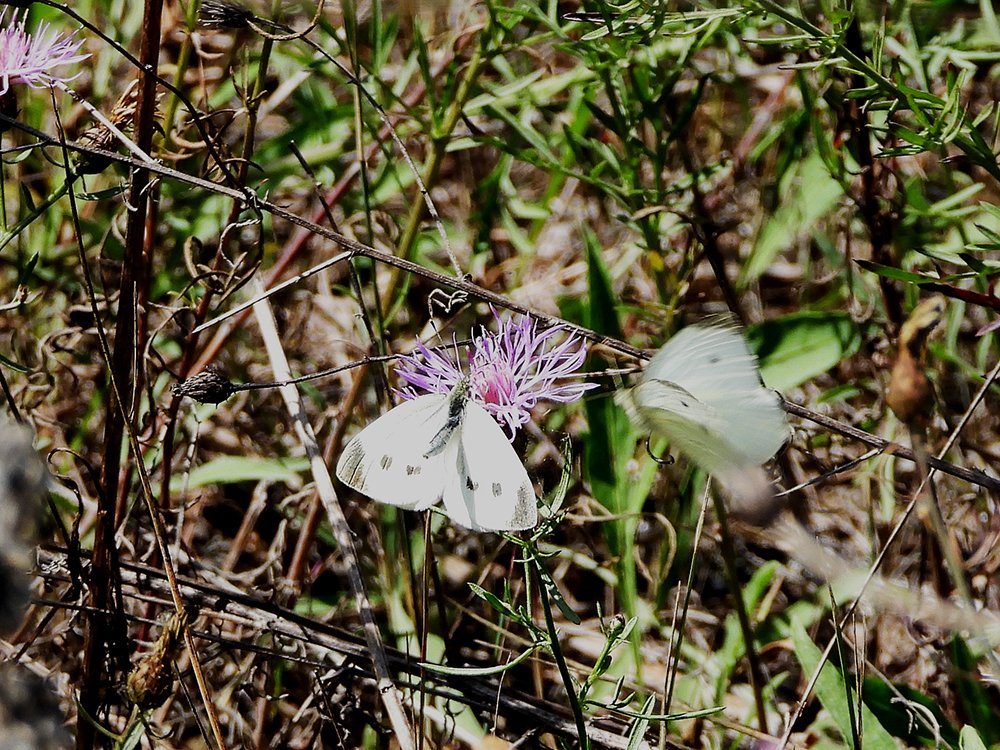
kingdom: Animalia
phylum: Arthropoda
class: Insecta
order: Lepidoptera
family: Pieridae
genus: Pieris
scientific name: Pieris rapae
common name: Cabbage White
